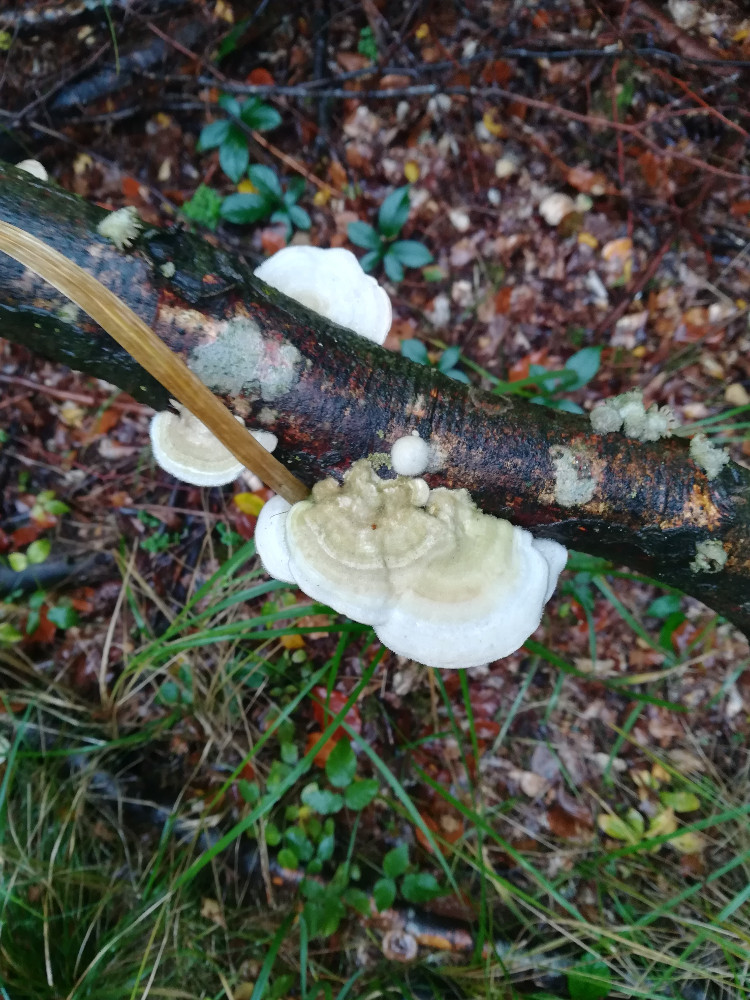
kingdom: Fungi
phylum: Basidiomycota
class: Agaricomycetes
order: Polyporales
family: Polyporaceae
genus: Trametes
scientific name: Trametes hirsuta
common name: håret læderporesvamp
